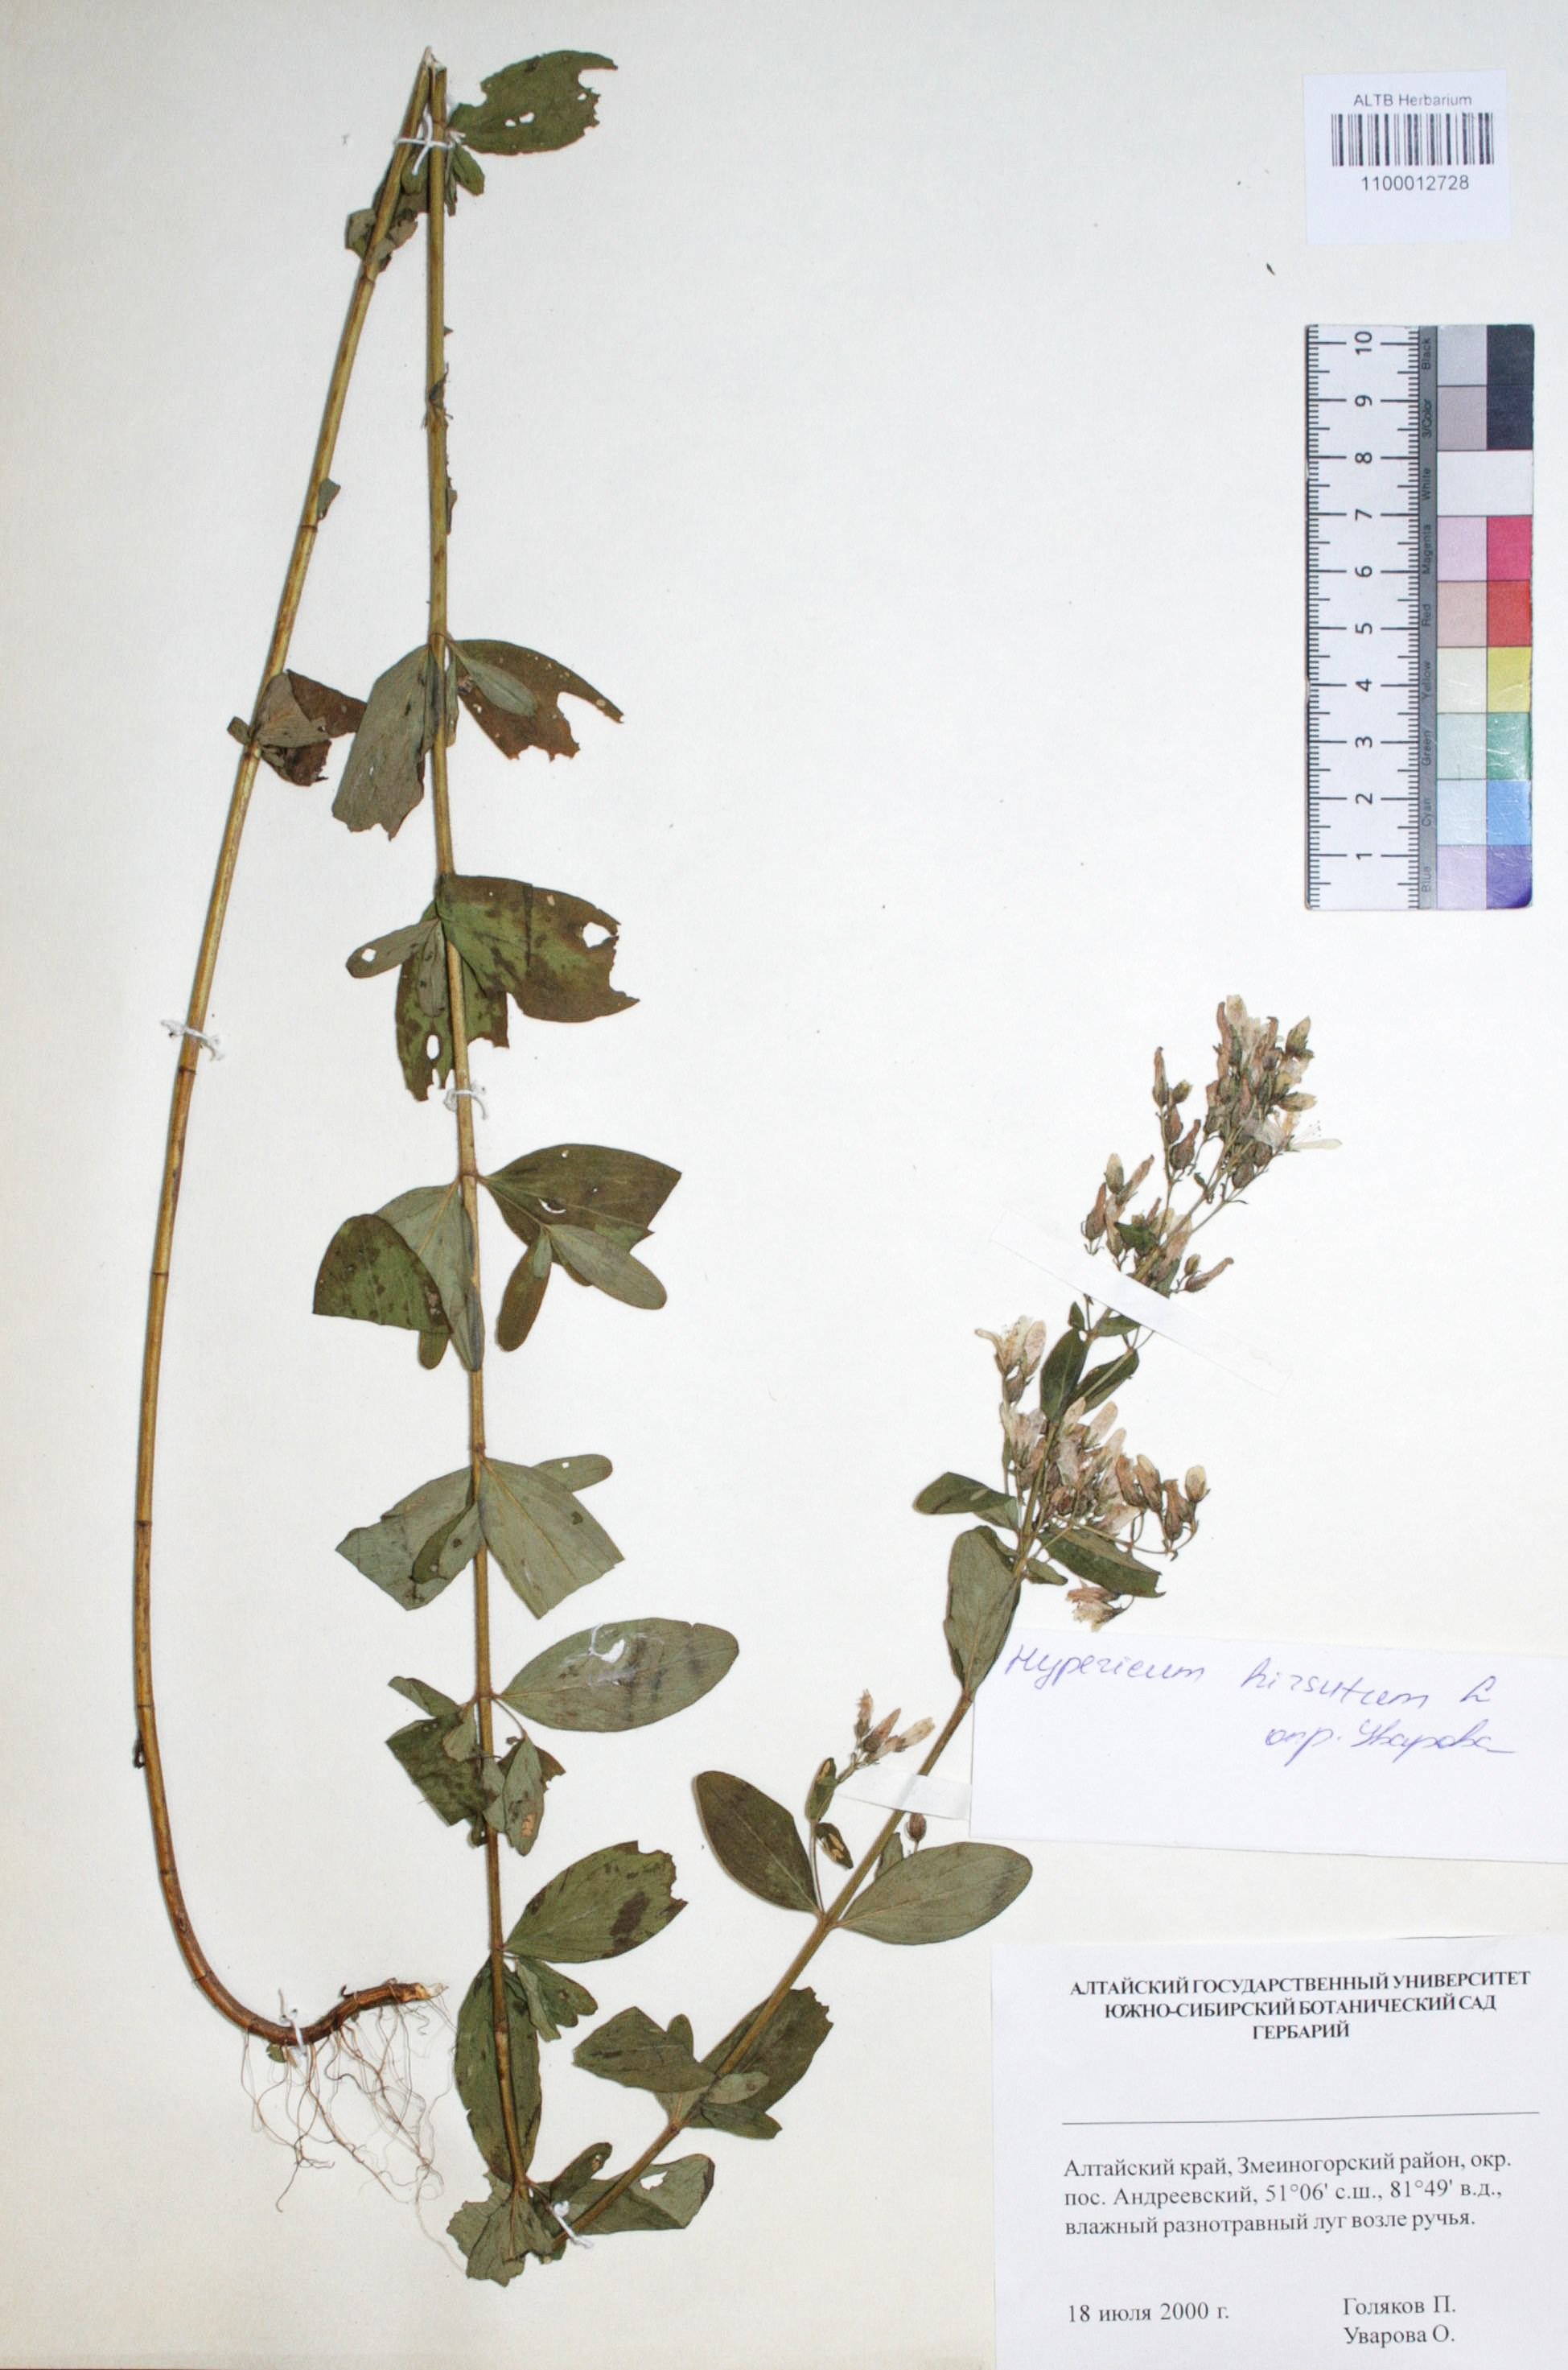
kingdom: Plantae
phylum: Tracheophyta
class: Magnoliopsida
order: Malpighiales
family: Hypericaceae
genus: Hypericum
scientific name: Hypericum hirsutum
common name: Hairy st. john's-wort
